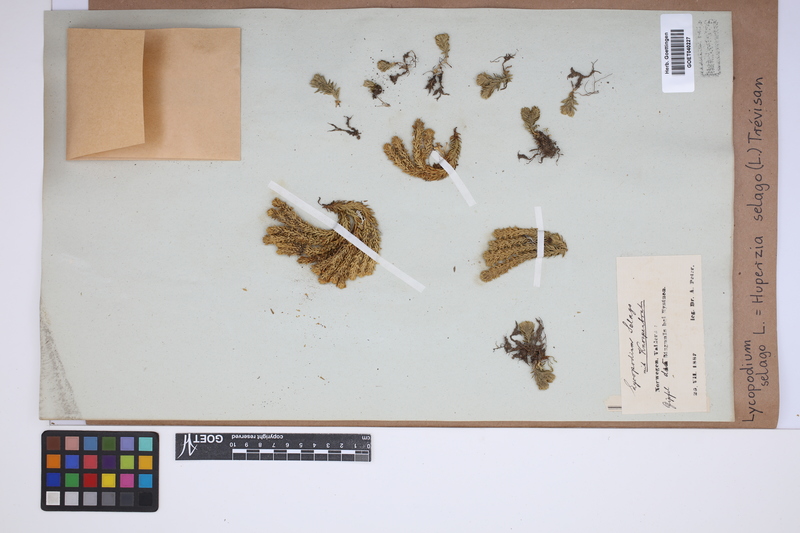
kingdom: Plantae
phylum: Tracheophyta
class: Lycopodiopsida
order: Lycopodiales
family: Lycopodiaceae
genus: Huperzia
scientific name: Huperzia selago
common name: Northern firmoss
